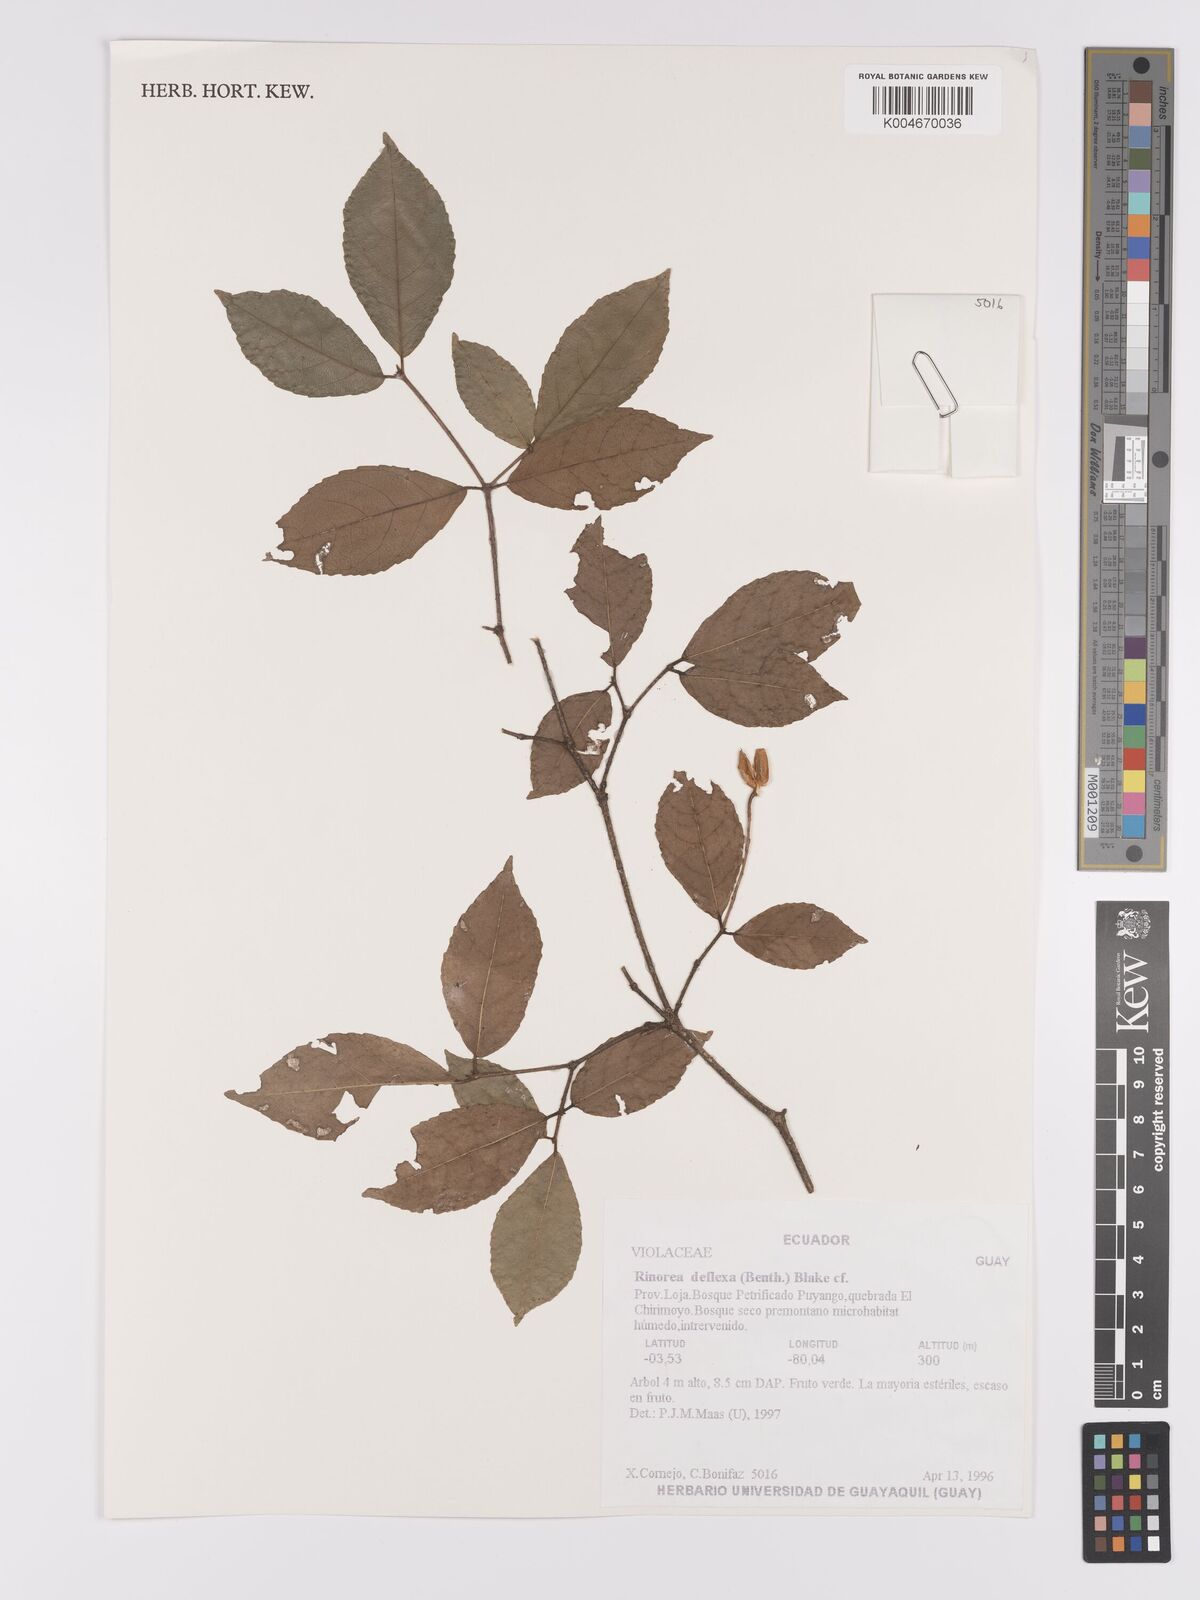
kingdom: Plantae
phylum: Tracheophyta
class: Magnoliopsida
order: Malpighiales
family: Violaceae
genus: Rinorea
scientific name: Rinorea deflexa
